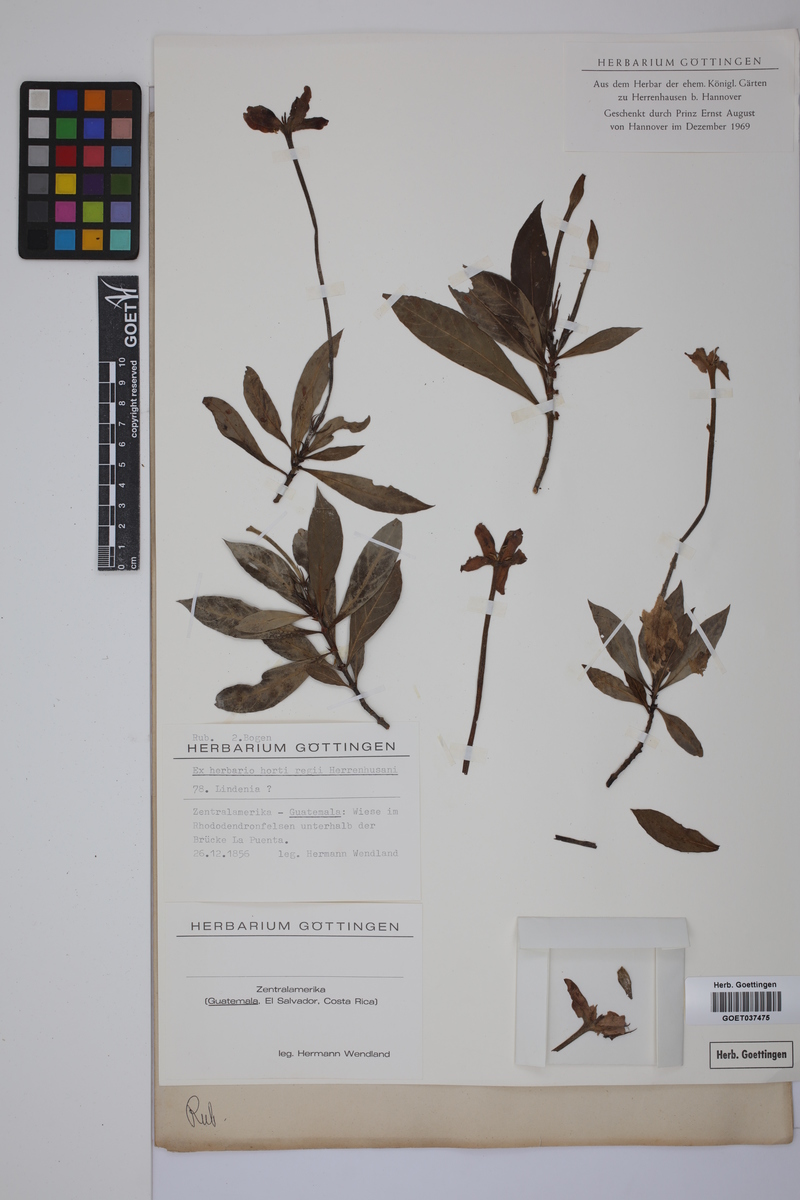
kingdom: Plantae
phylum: Tracheophyta
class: Magnoliopsida
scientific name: Magnoliopsida
